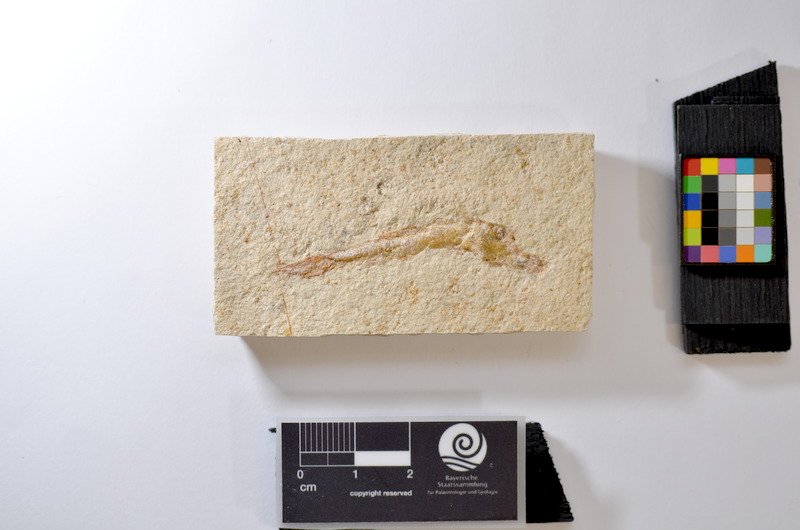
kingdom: Animalia
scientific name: Animalia
